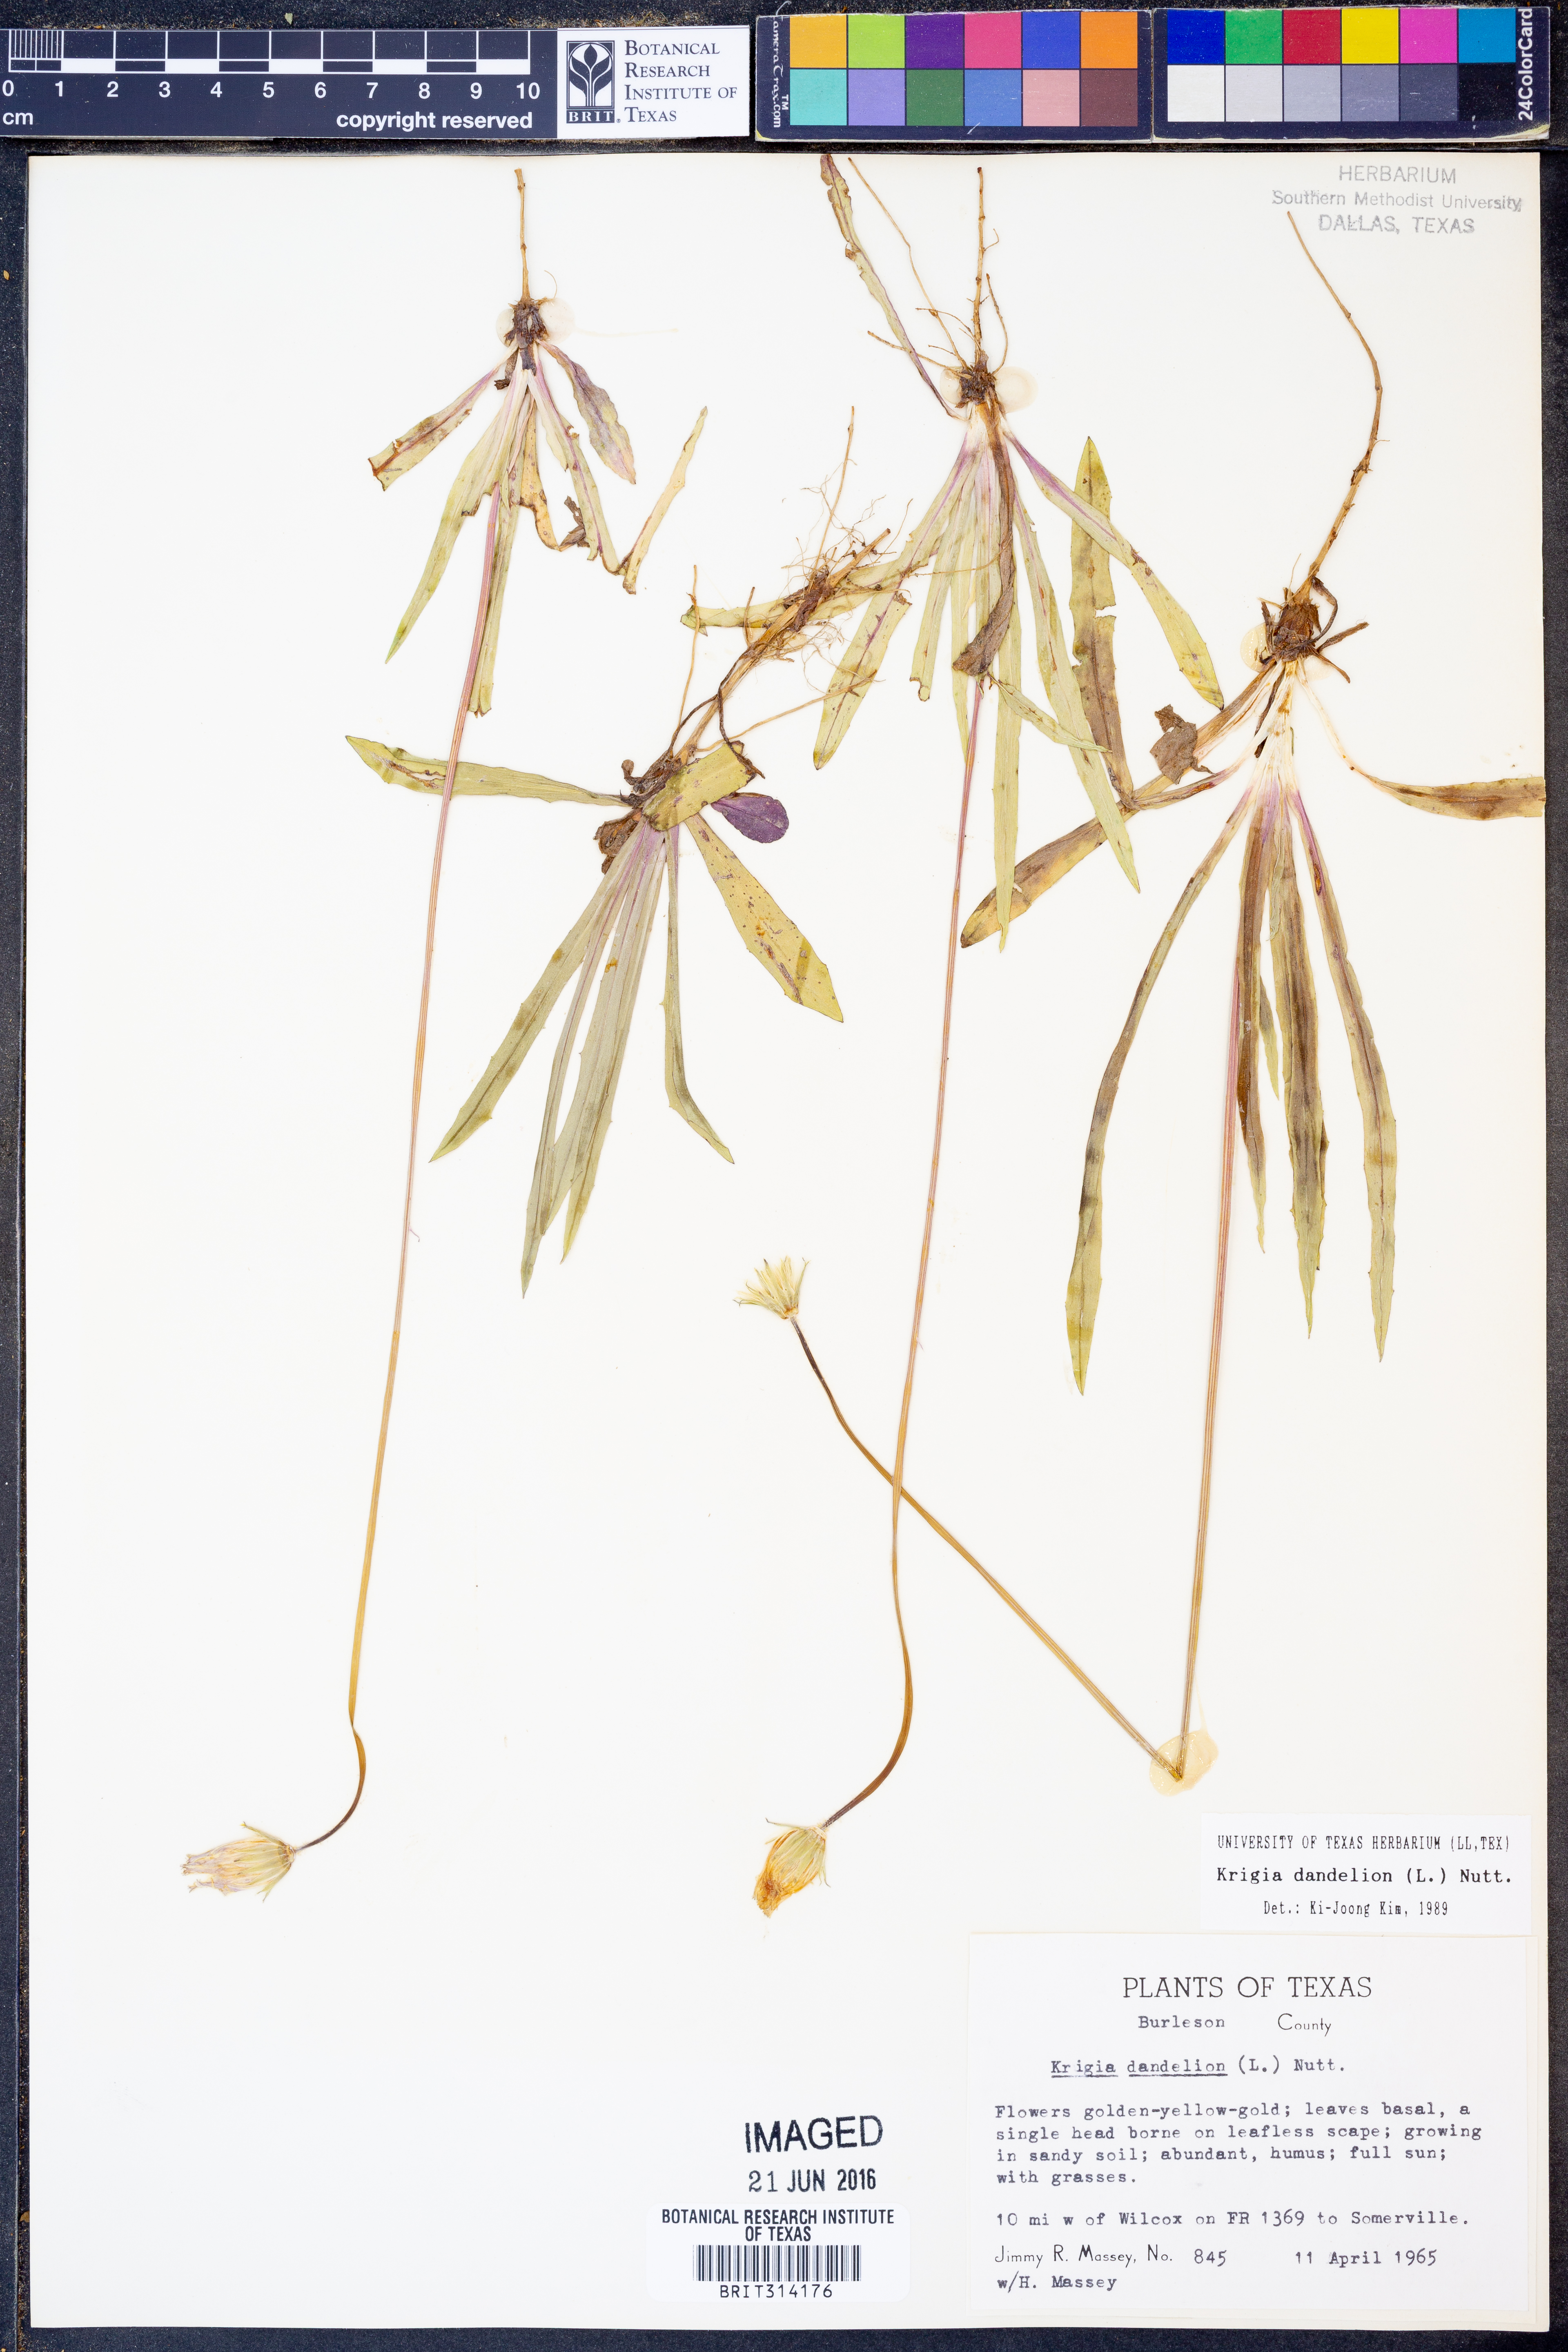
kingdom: Plantae
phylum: Tracheophyta
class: Magnoliopsida
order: Asterales
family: Asteraceae
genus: Krigia
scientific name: Krigia dandelion
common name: Colonial dwarf-dandelion
